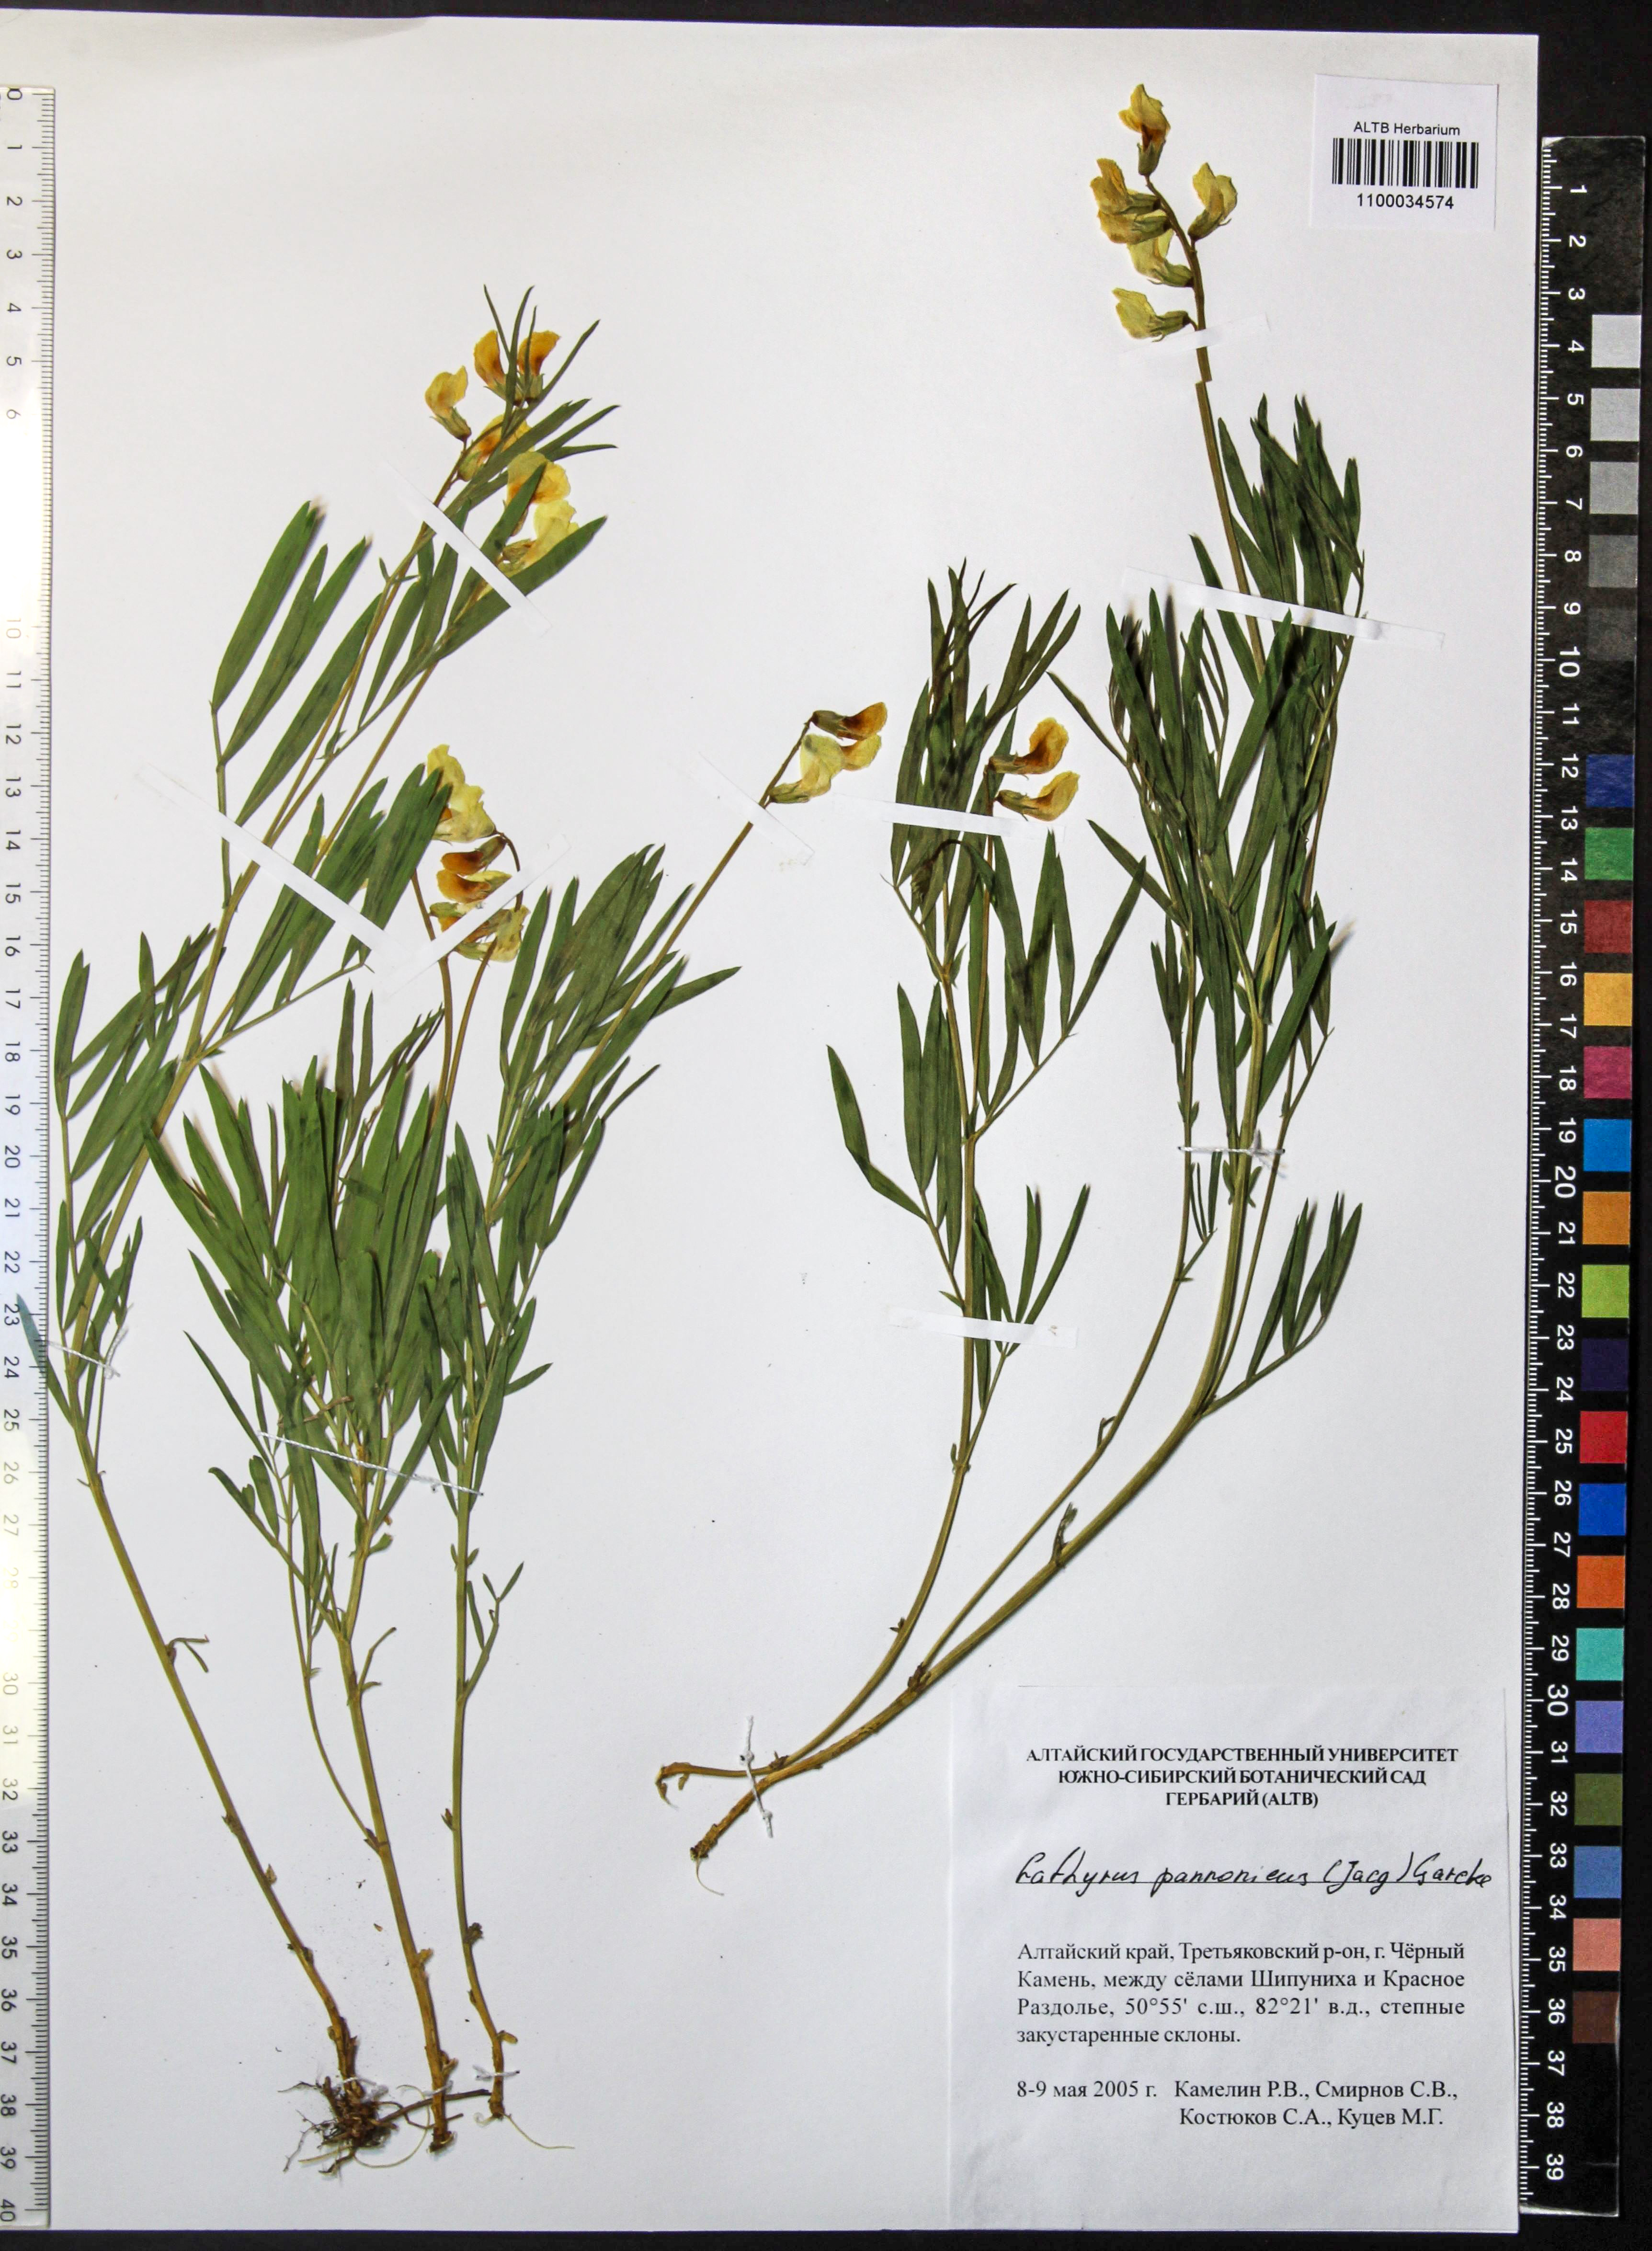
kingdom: Plantae
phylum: Tracheophyta
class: Magnoliopsida
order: Fabales
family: Fabaceae
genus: Lathyrus
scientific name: Lathyrus pannonicus
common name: Pea
